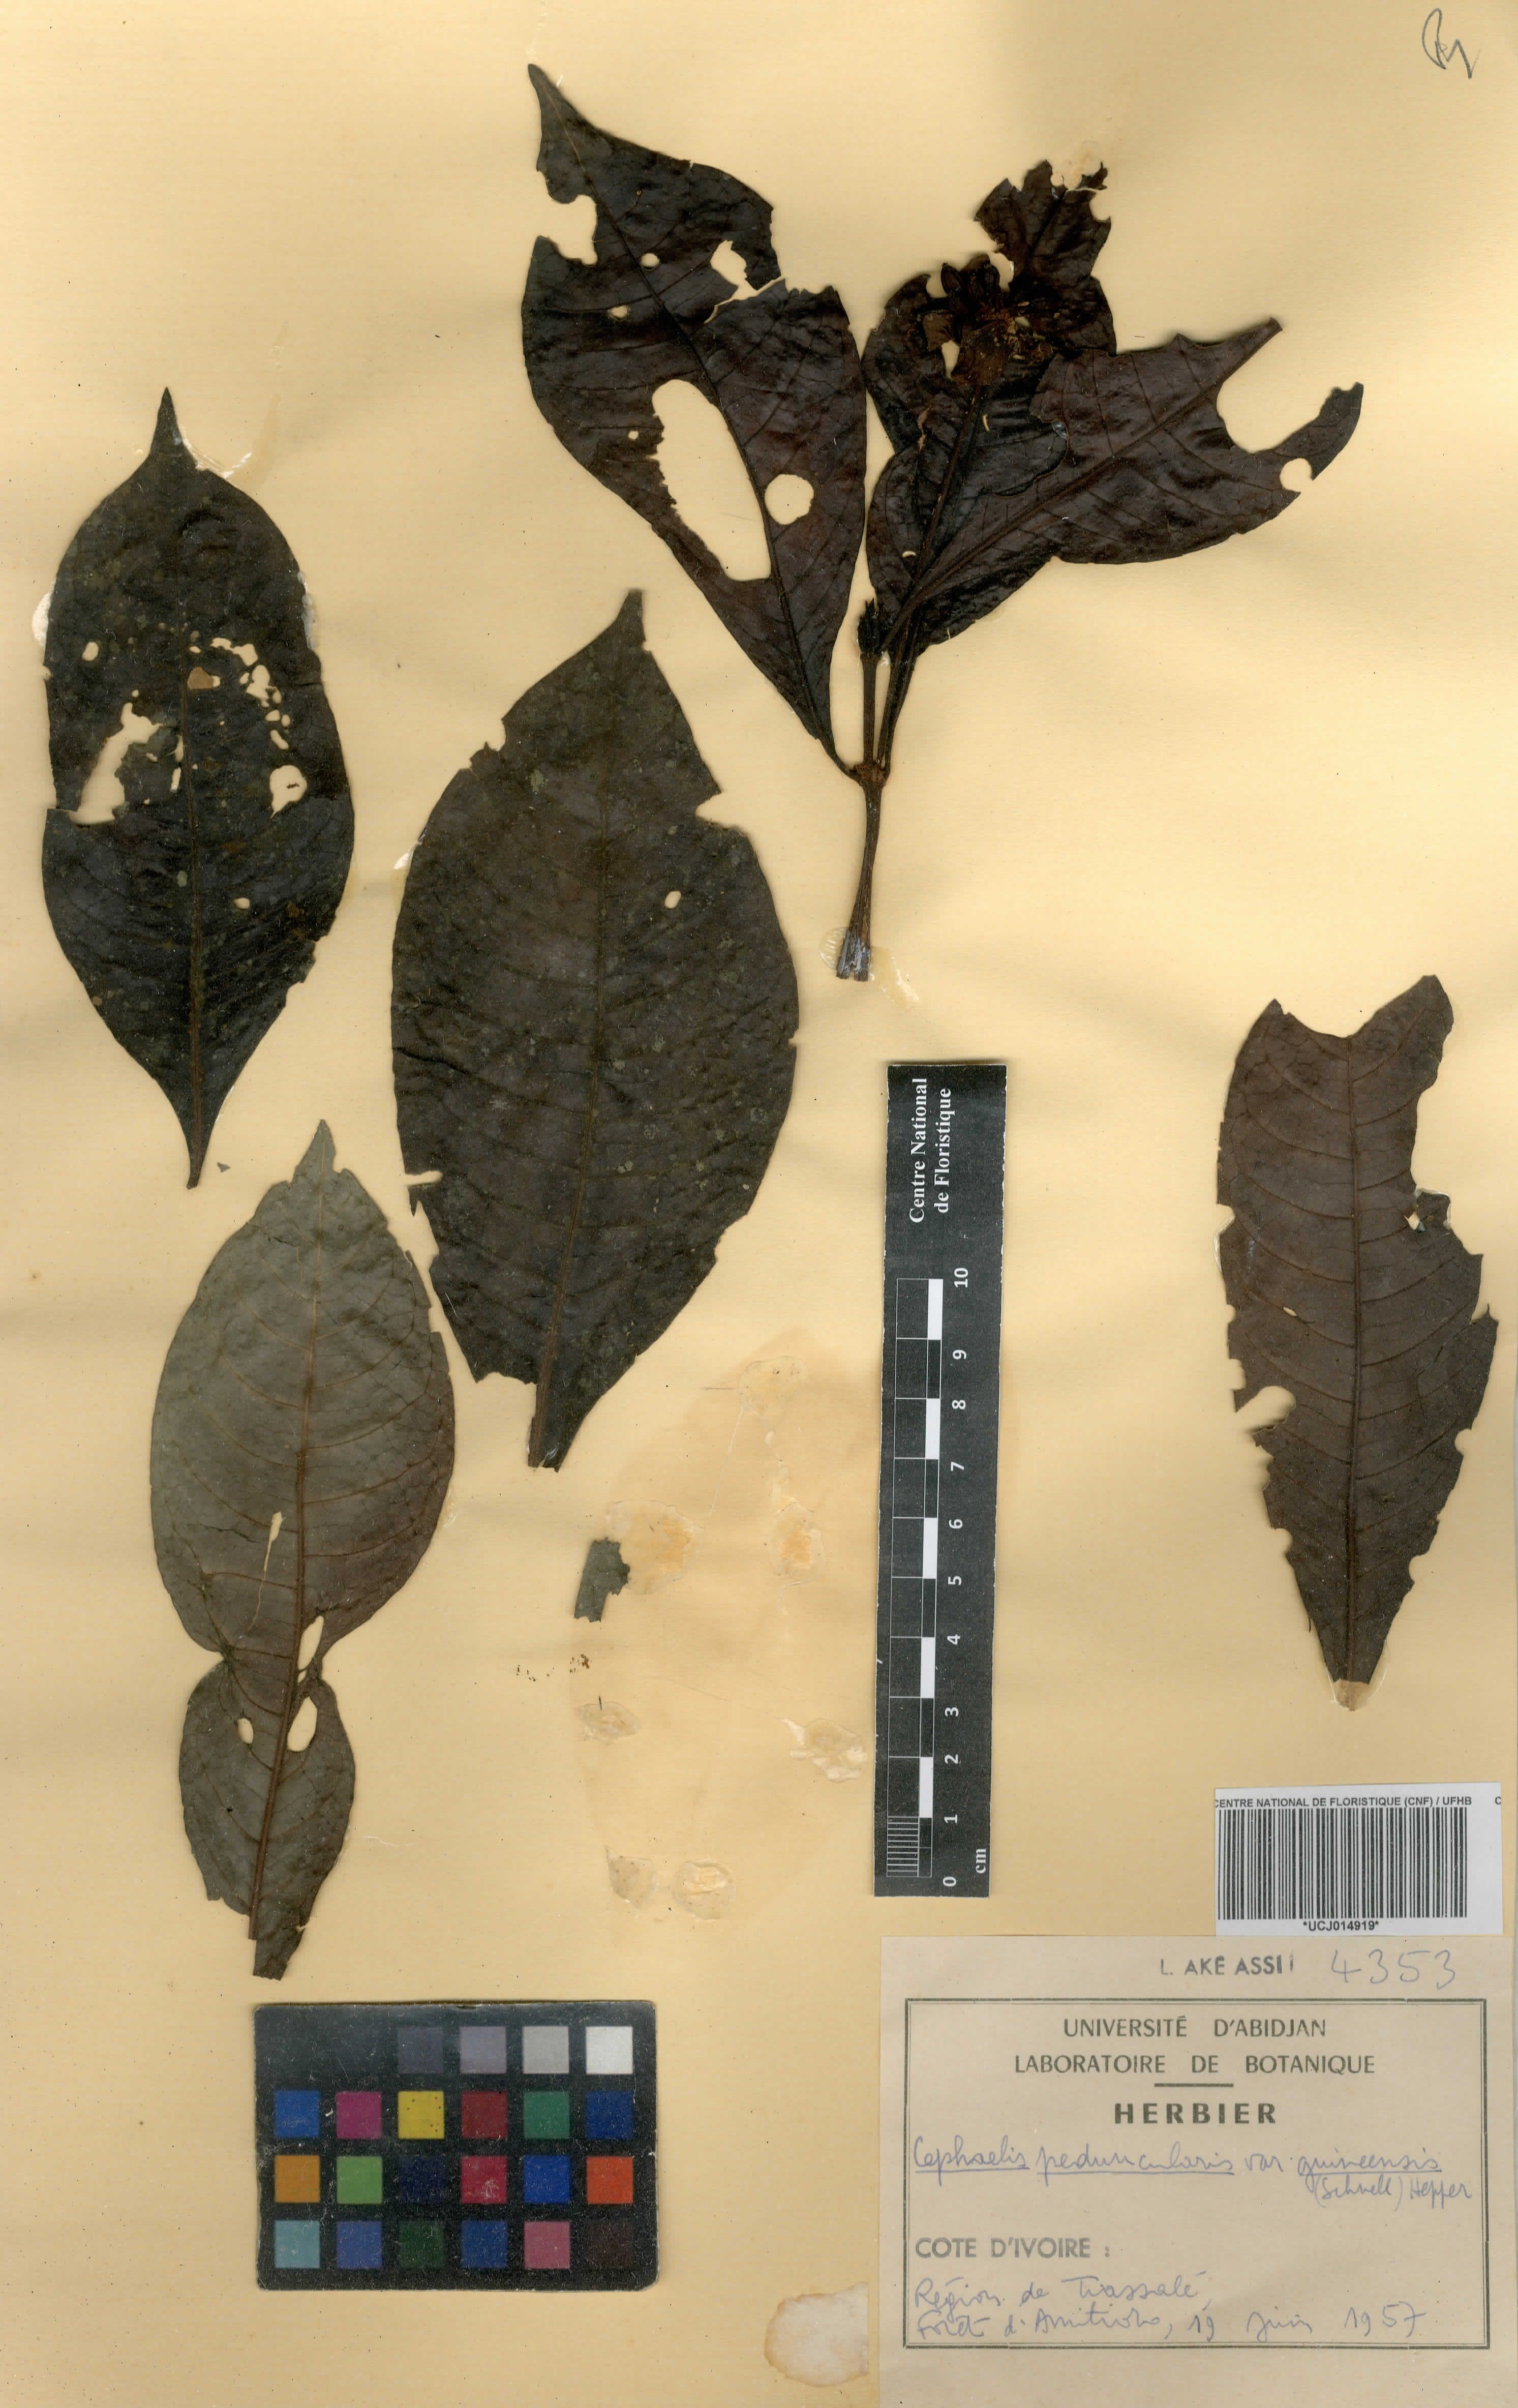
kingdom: Plantae
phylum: Tracheophyta
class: Magnoliopsida
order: Gentianales
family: Rubiaceae
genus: Psychotria
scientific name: Psychotria peduncularis
